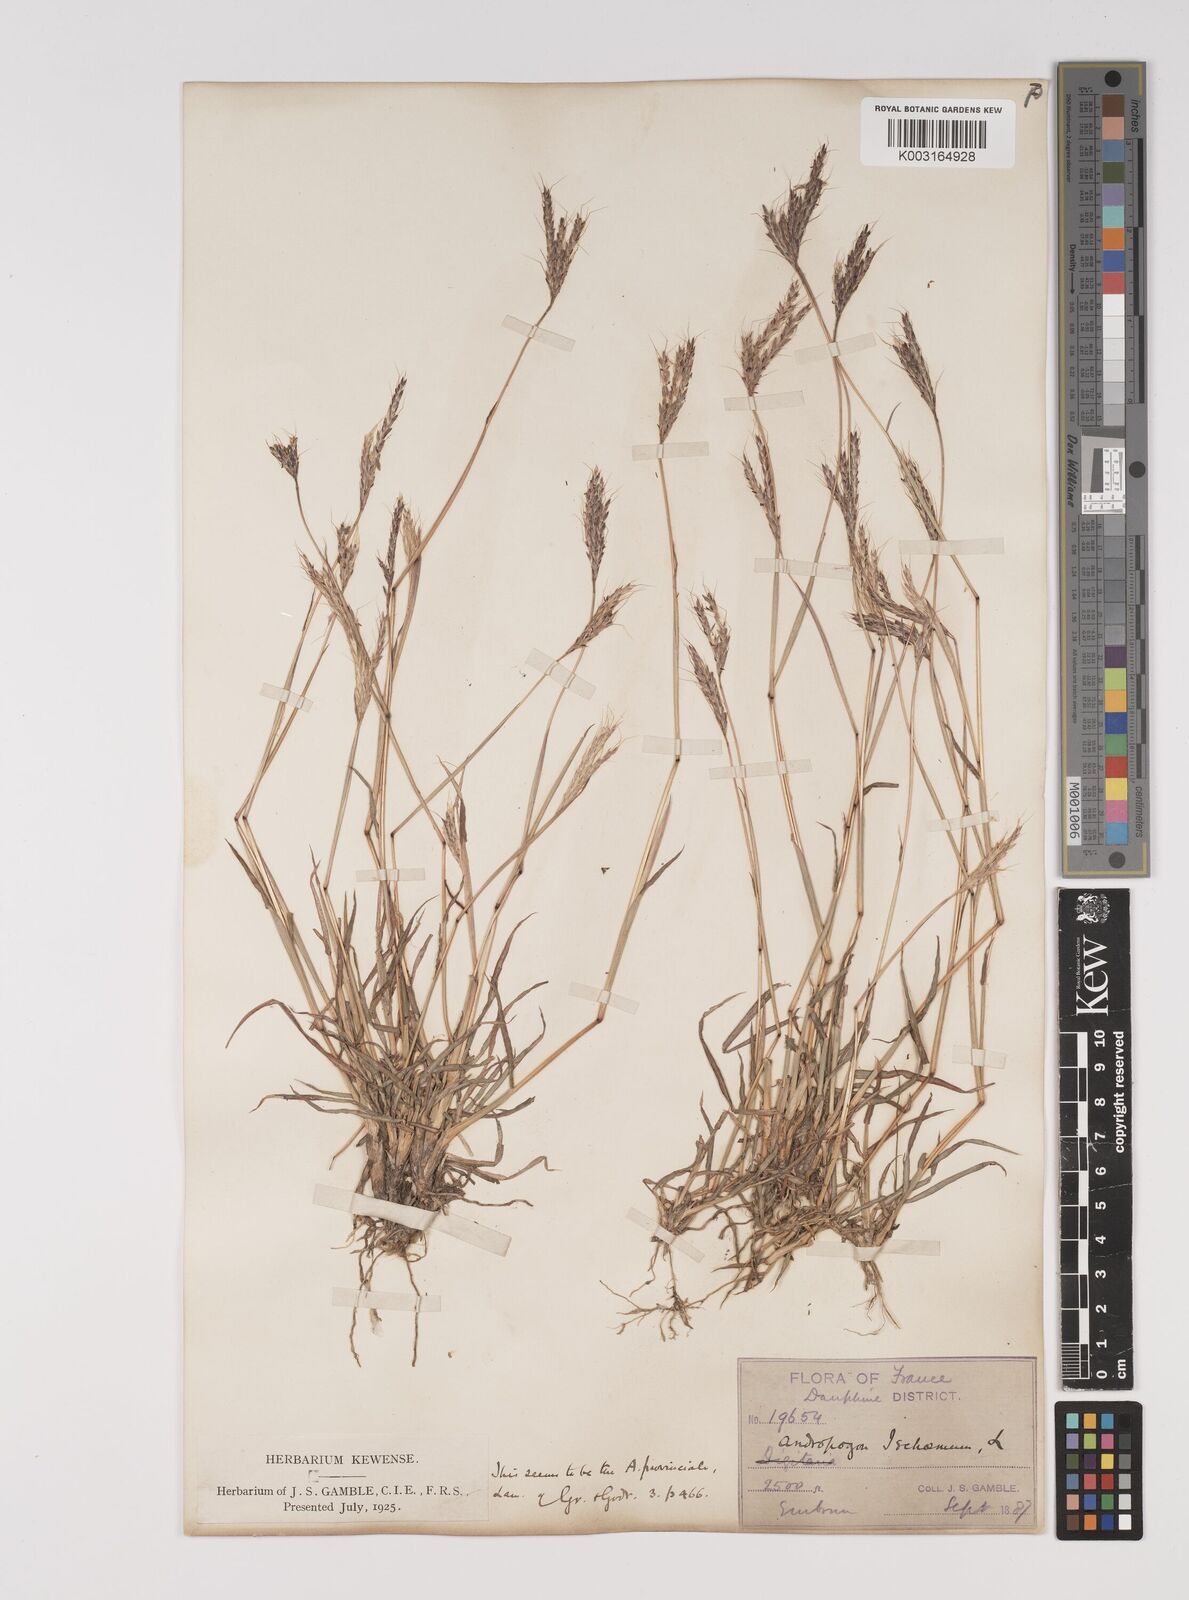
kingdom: Plantae
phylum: Tracheophyta
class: Liliopsida
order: Poales
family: Poaceae
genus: Bothriochloa
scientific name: Bothriochloa ischaemum
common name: Yellow bluestem
